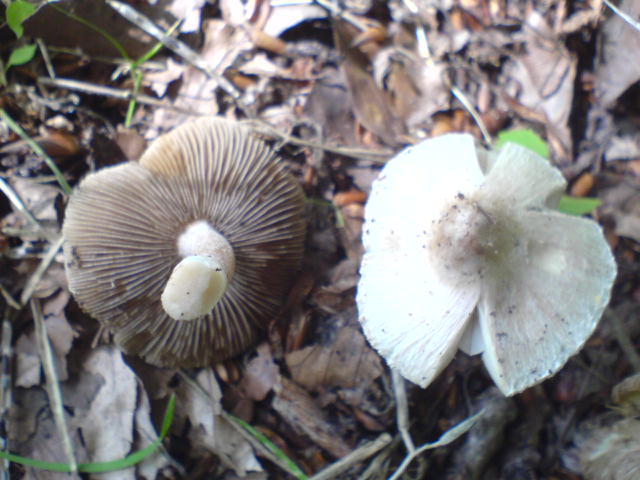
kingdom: Fungi
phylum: Basidiomycota
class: Agaricomycetes
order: Agaricales
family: Inocybaceae
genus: Pseudosperma
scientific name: Pseudosperma rimosum
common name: gulbladet trævlhat
